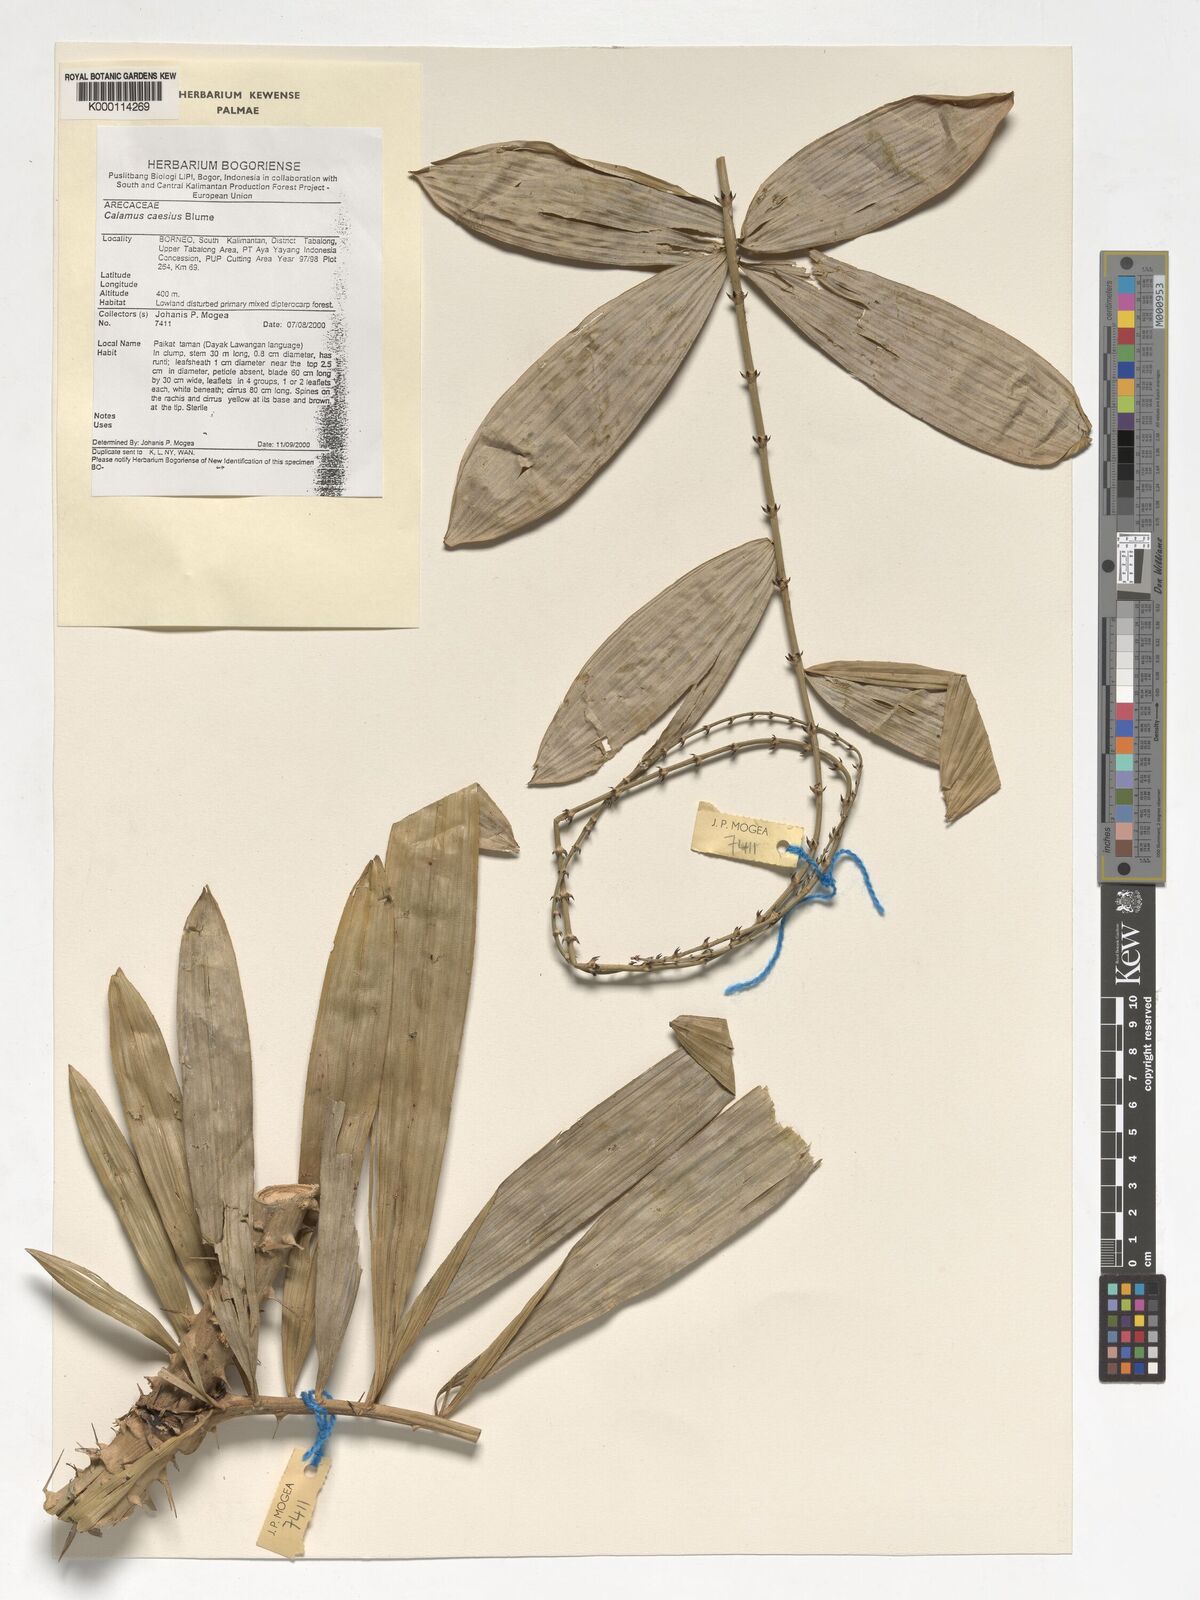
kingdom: Plantae
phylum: Tracheophyta
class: Liliopsida
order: Arecales
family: Arecaceae
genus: Calamus
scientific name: Calamus caesius
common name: Rattan palm
